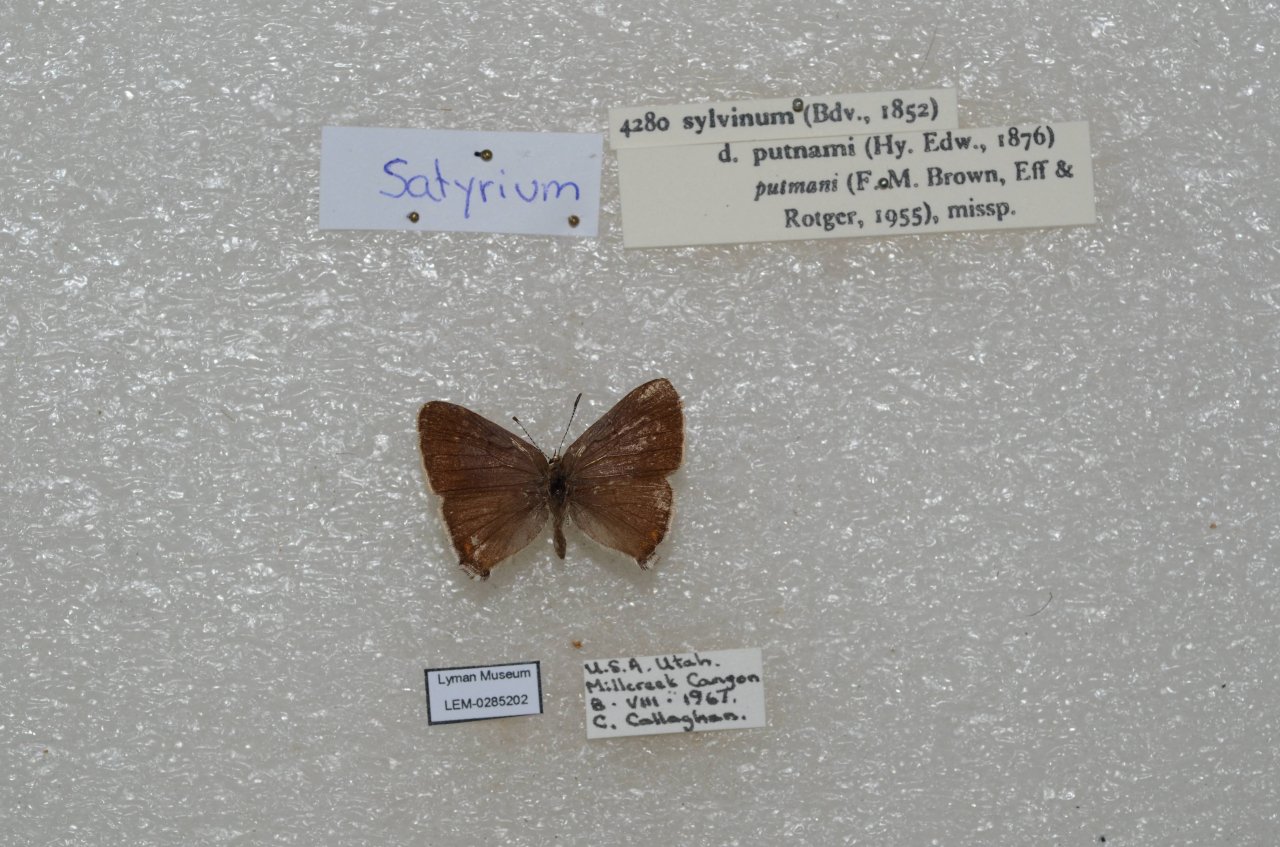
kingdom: Animalia
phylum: Arthropoda
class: Insecta
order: Lepidoptera
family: Lycaenidae
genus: Strymon
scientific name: Strymon acadica
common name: California Hairstreak
